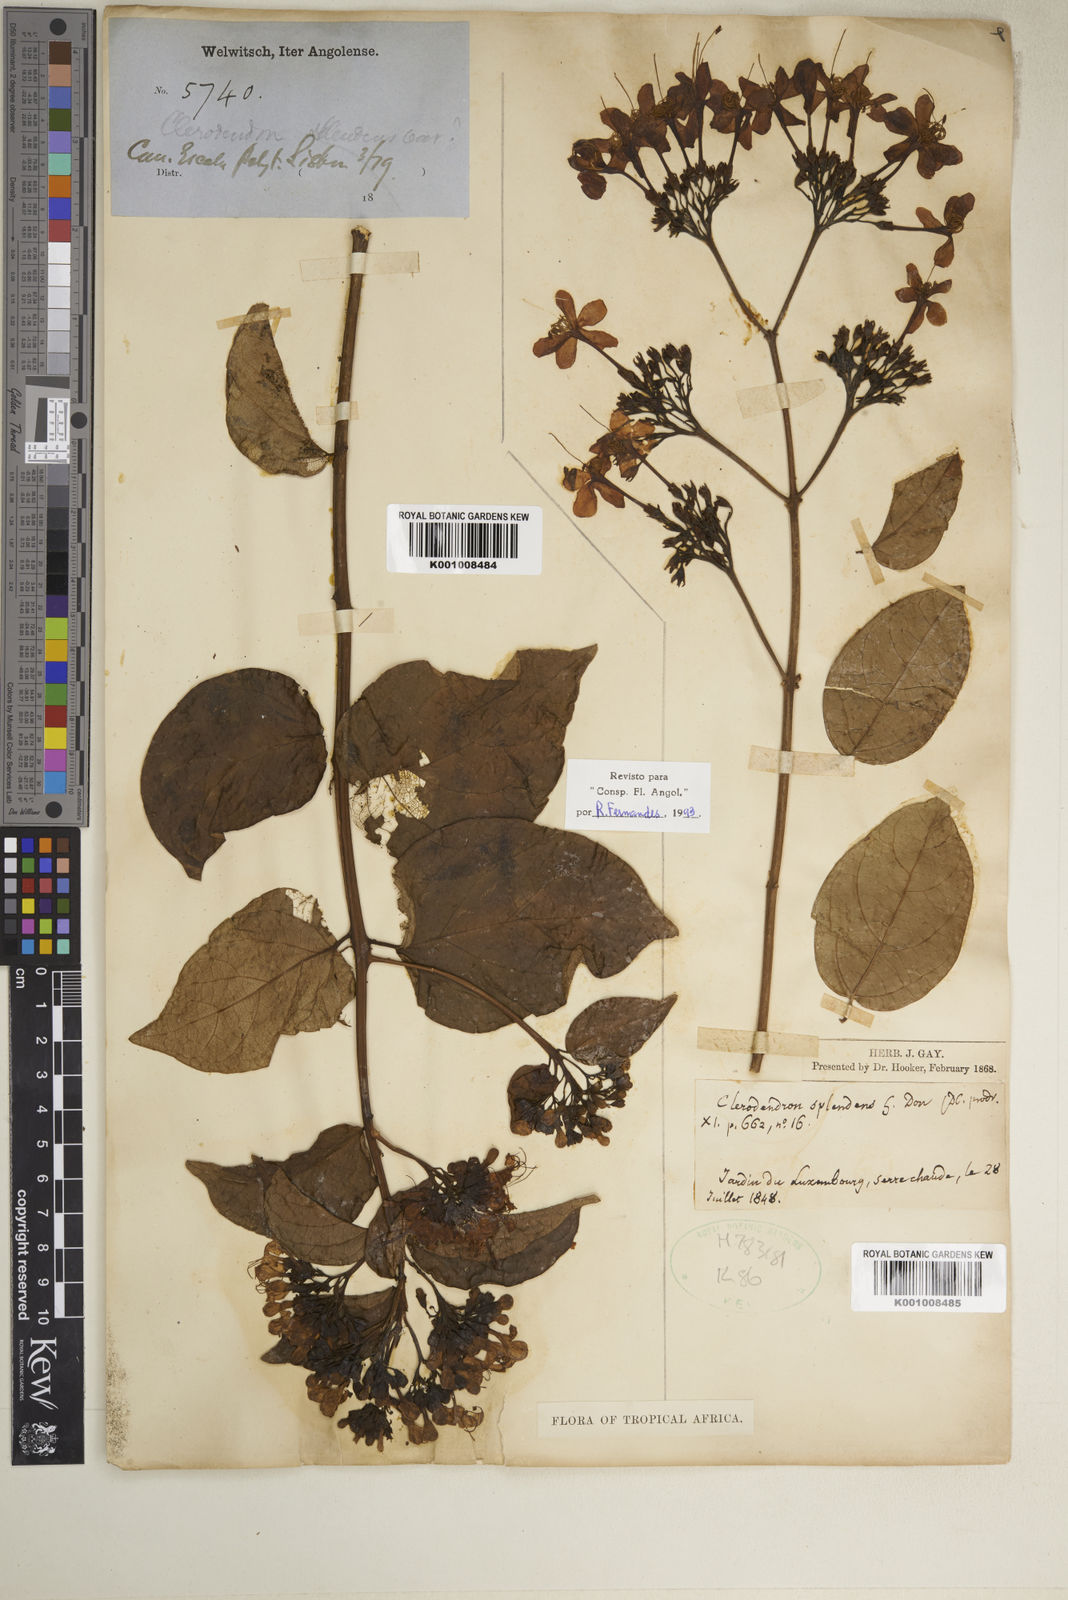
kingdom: Plantae
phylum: Tracheophyta
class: Magnoliopsida
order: Lamiales
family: Lamiaceae
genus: Clerodendrum
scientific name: Clerodendrum splendens
